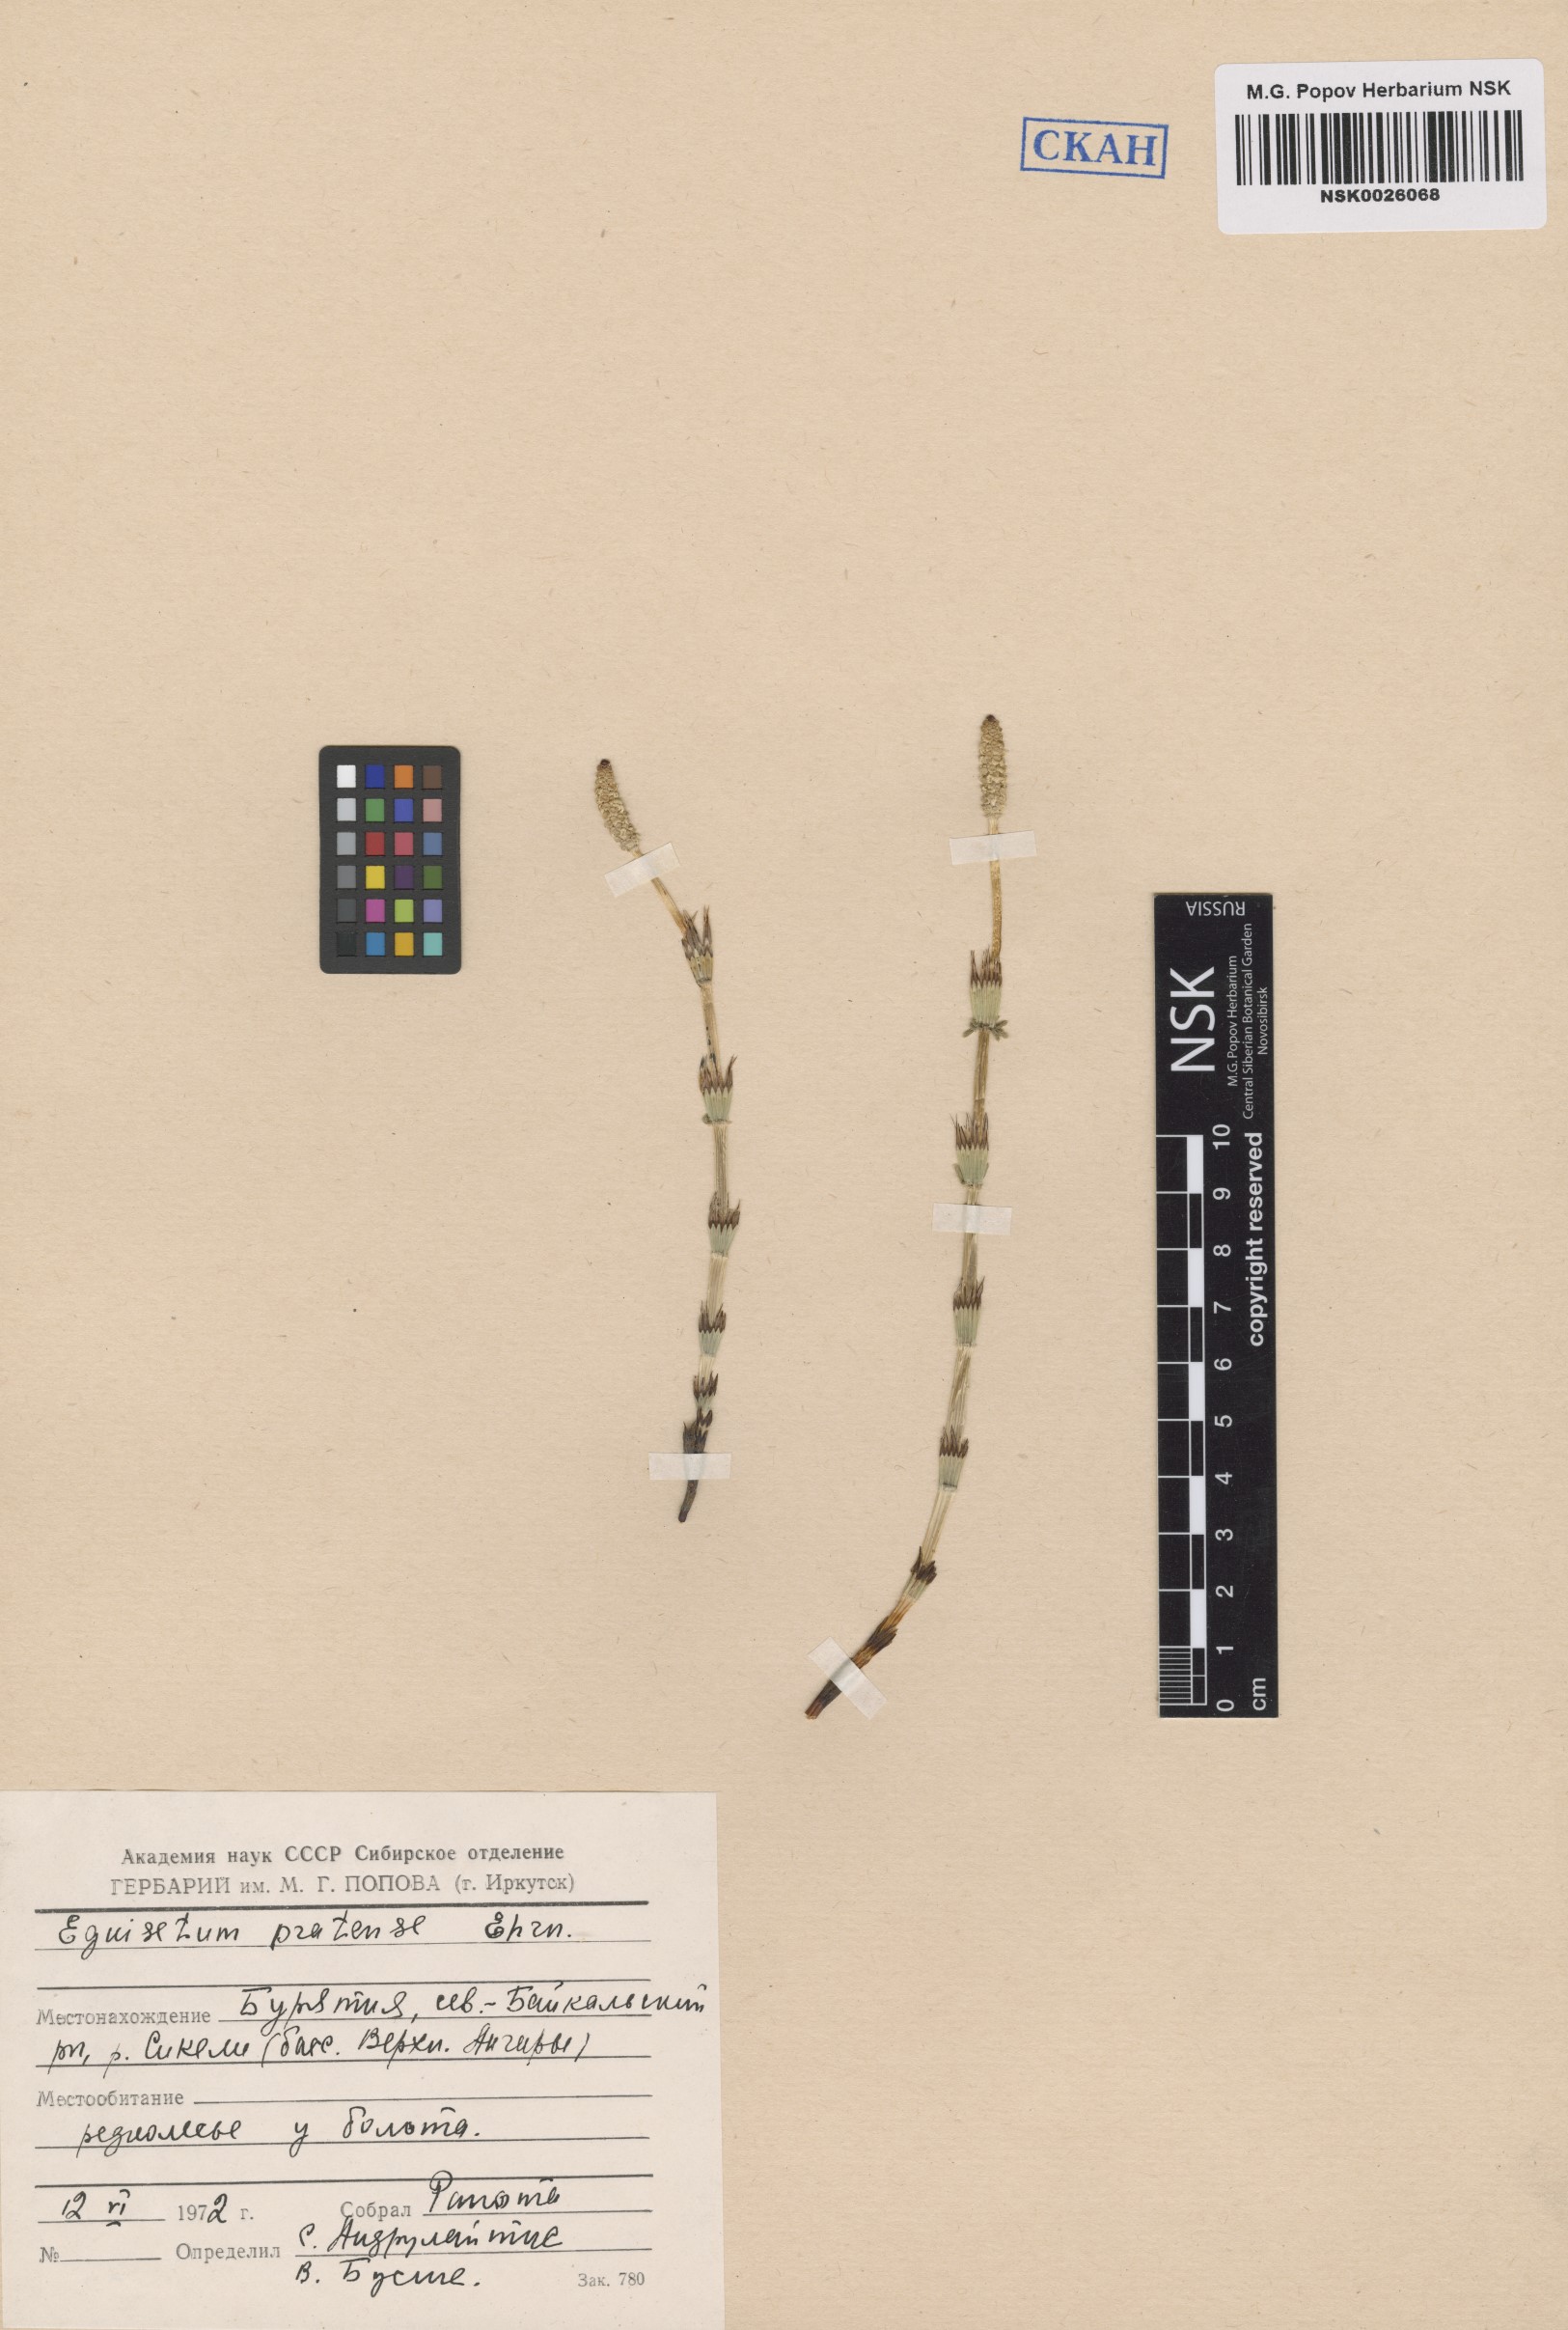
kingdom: Plantae
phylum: Tracheophyta
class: Polypodiopsida
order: Equisetales
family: Equisetaceae
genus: Equisetum
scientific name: Equisetum pratense
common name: Meadow horsetail
